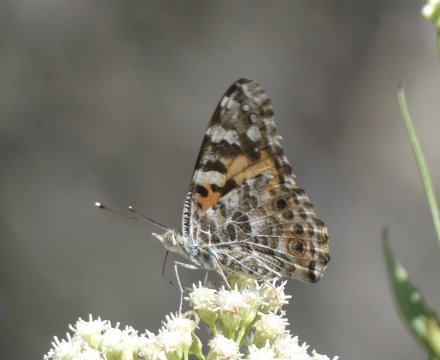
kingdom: Animalia
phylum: Arthropoda
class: Insecta
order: Lepidoptera
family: Nymphalidae
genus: Vanessa
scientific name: Vanessa cardui
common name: Painted Lady
